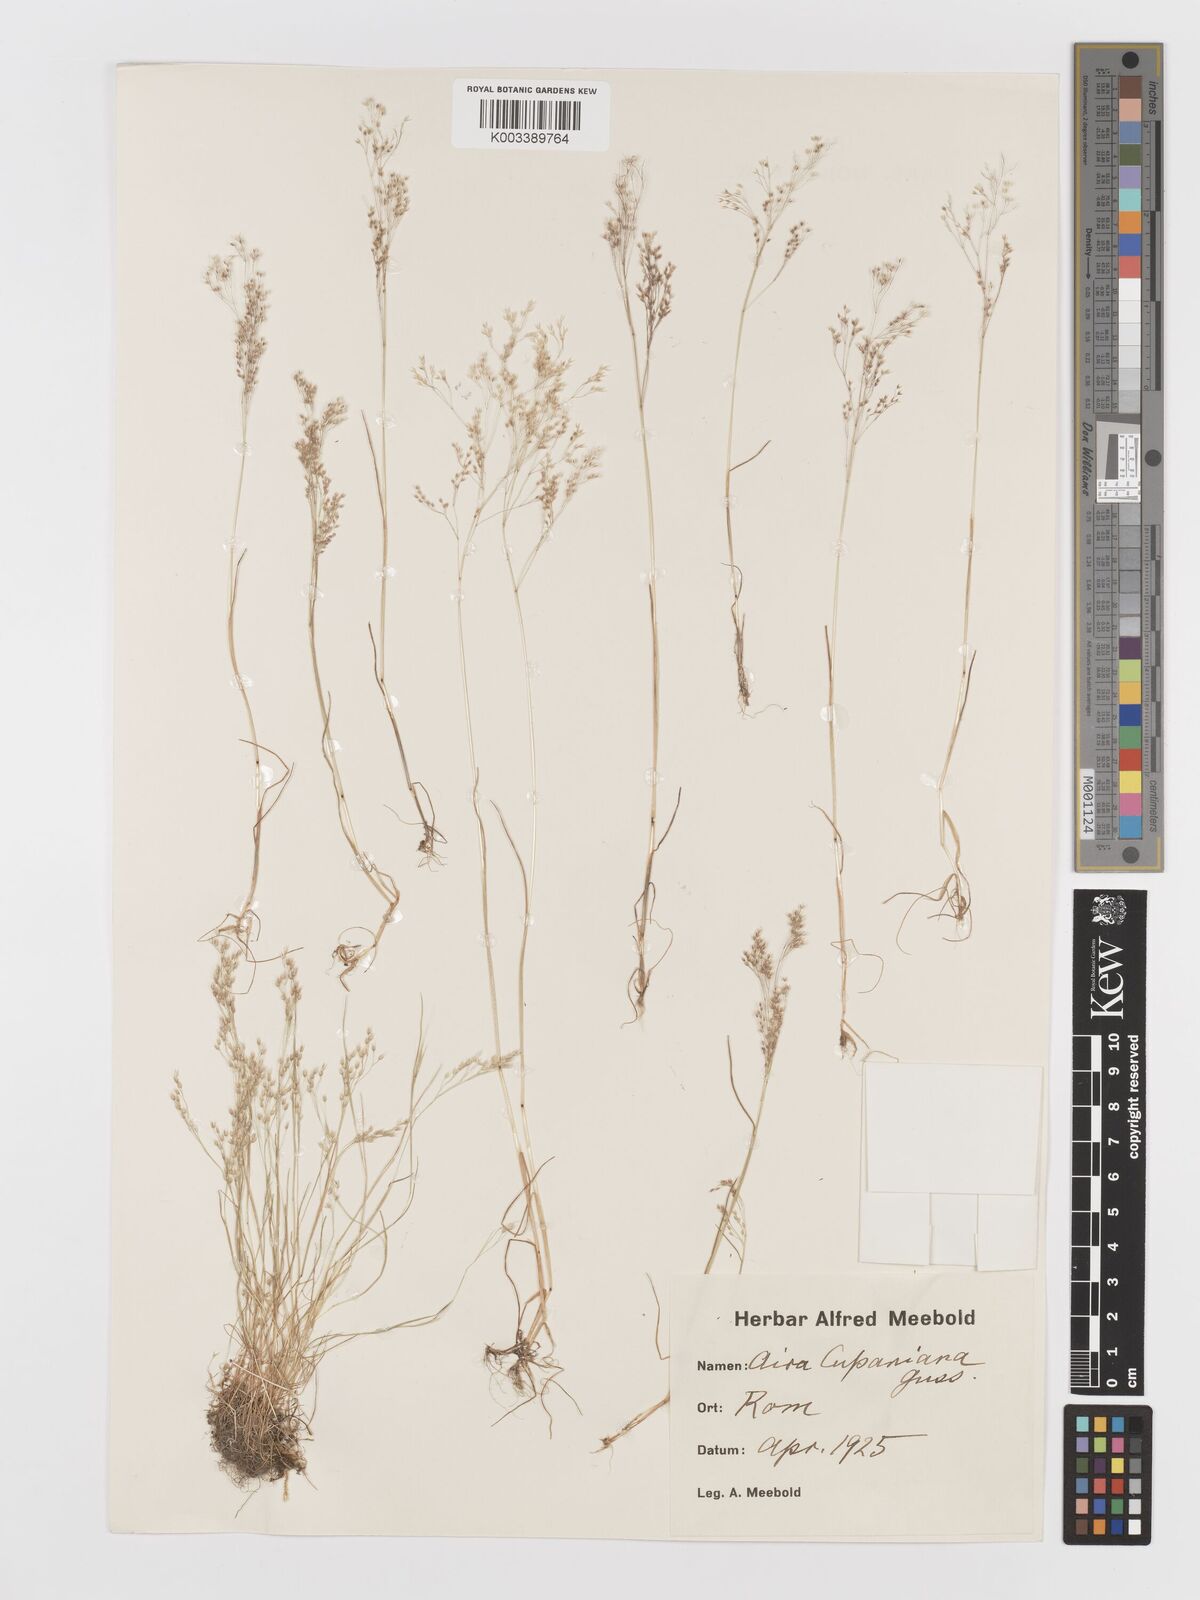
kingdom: Plantae
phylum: Tracheophyta
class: Liliopsida
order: Poales
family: Poaceae
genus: Aira
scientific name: Aira cupaniana
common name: Silver hairgrass
